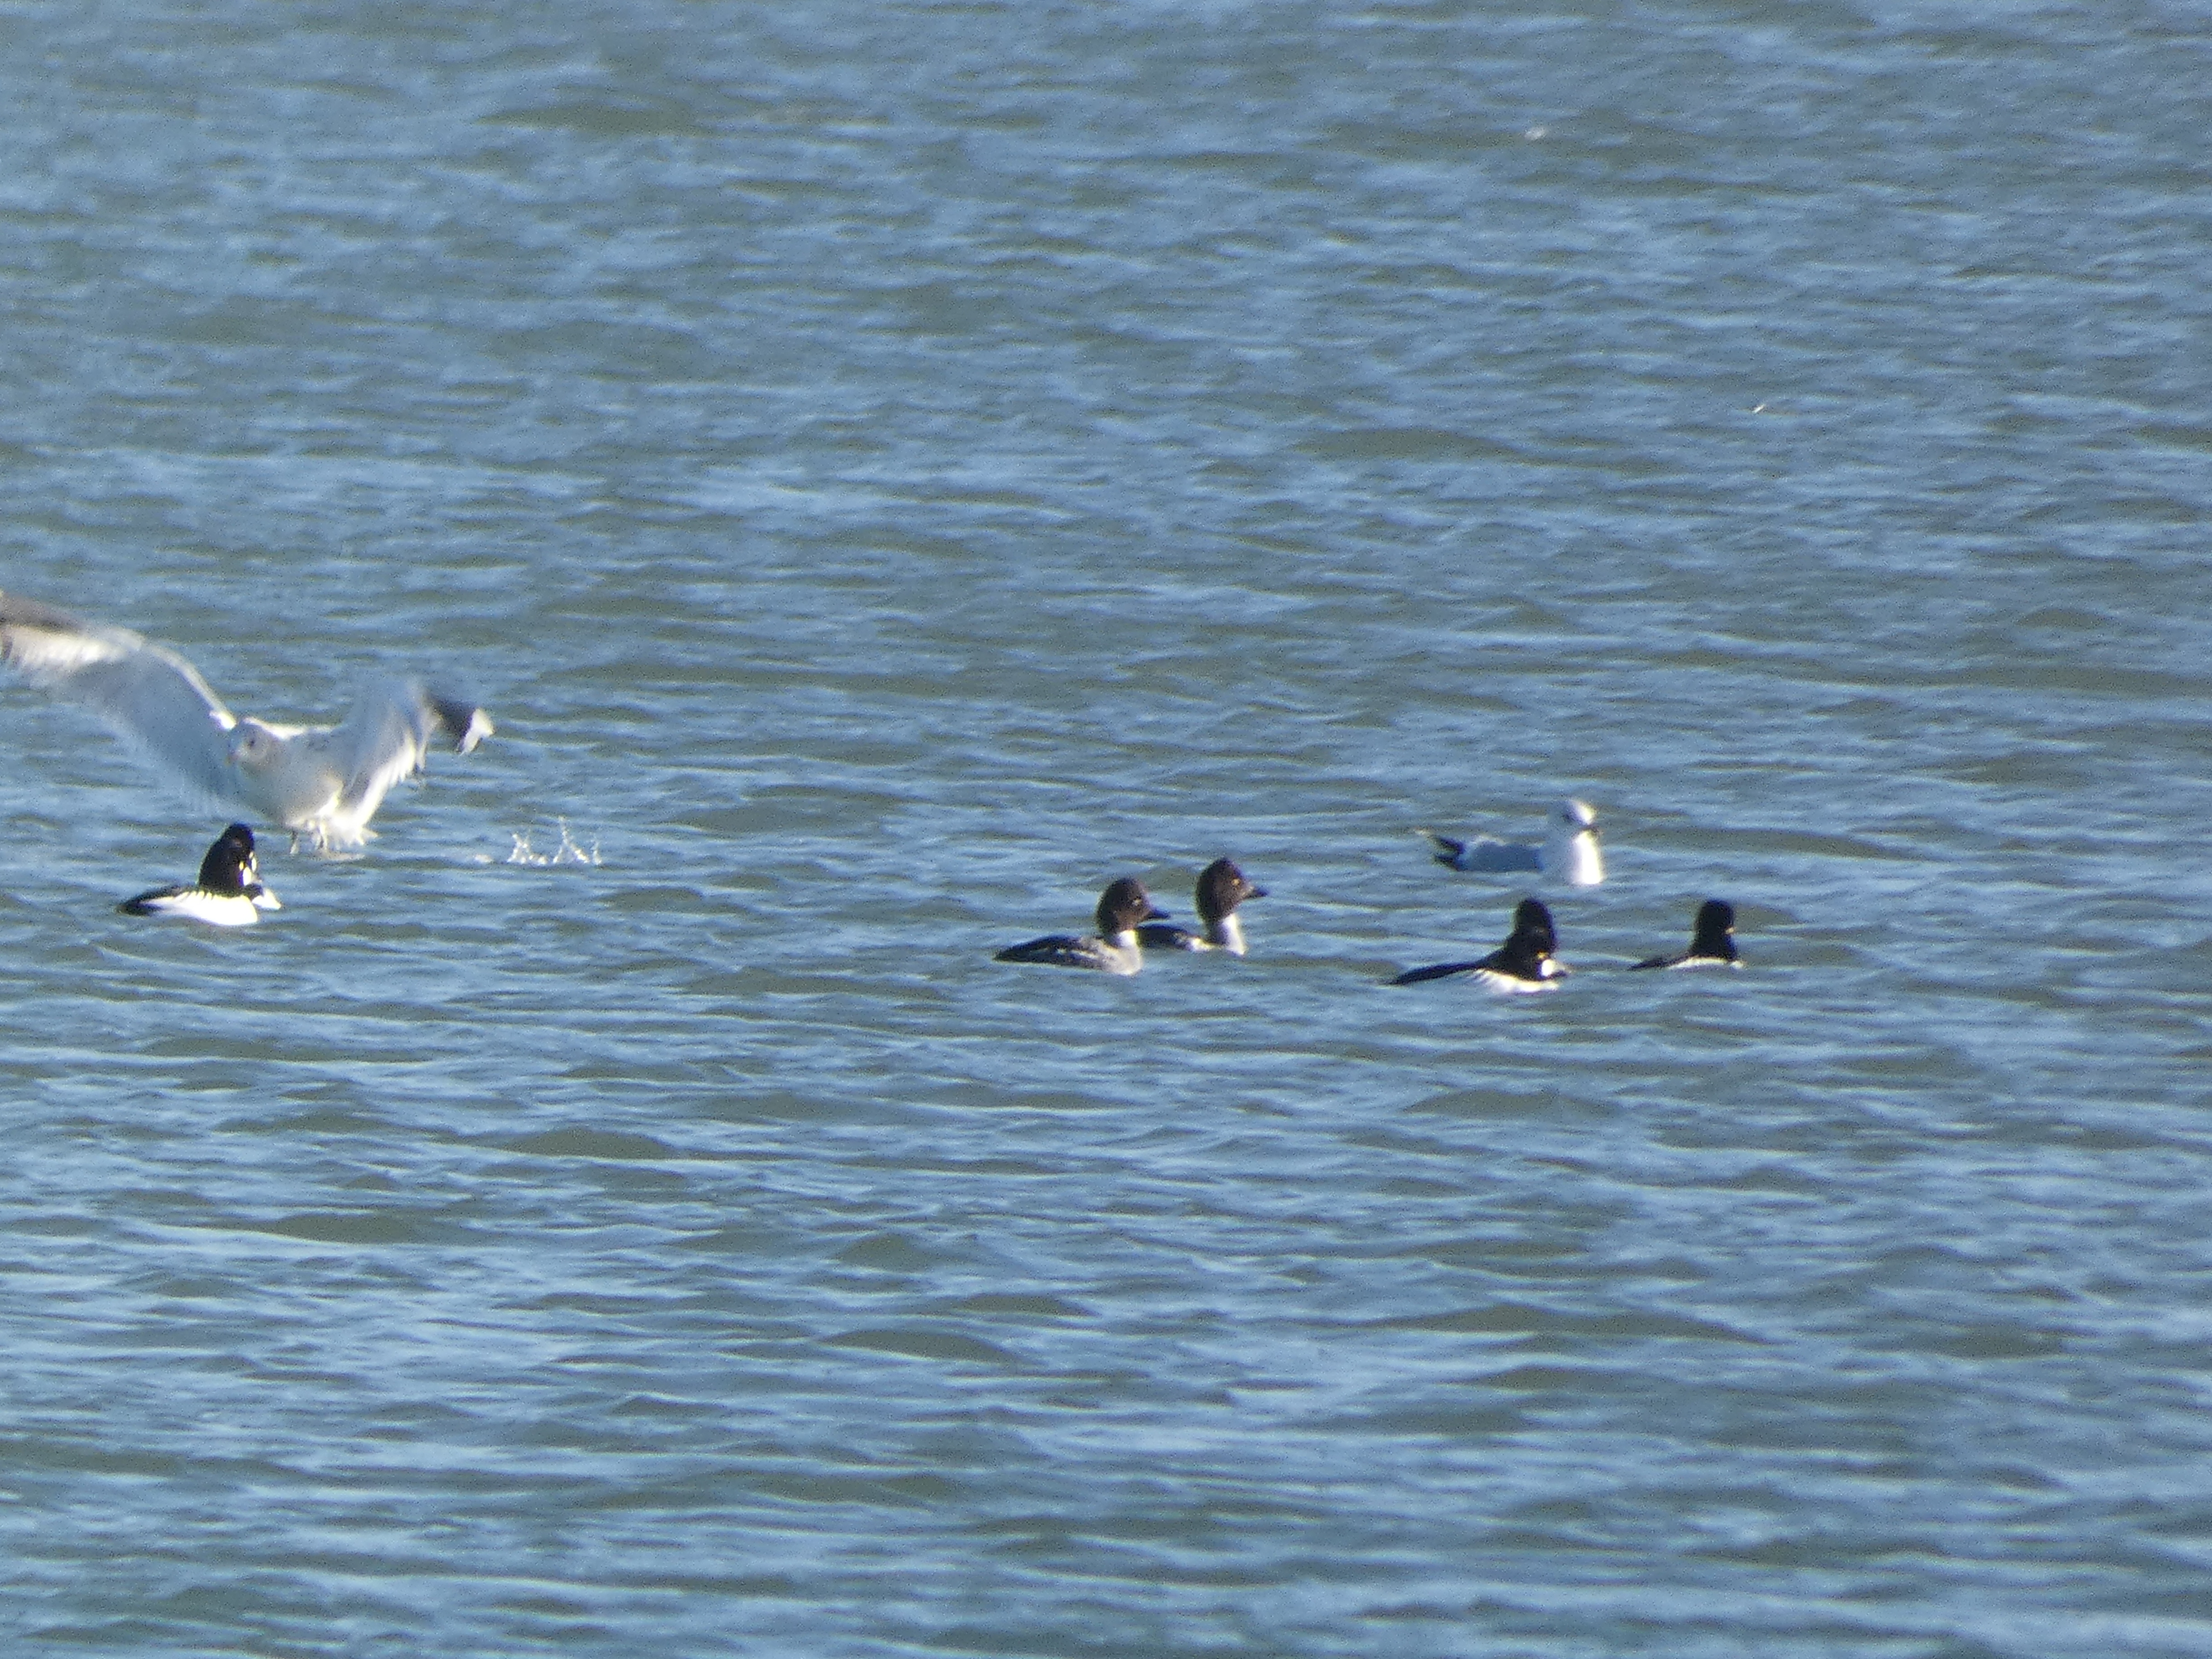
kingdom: Animalia
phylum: Chordata
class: Aves
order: Anseriformes
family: Anatidae
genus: Bucephala
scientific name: Bucephala clangula
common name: Hvinand
